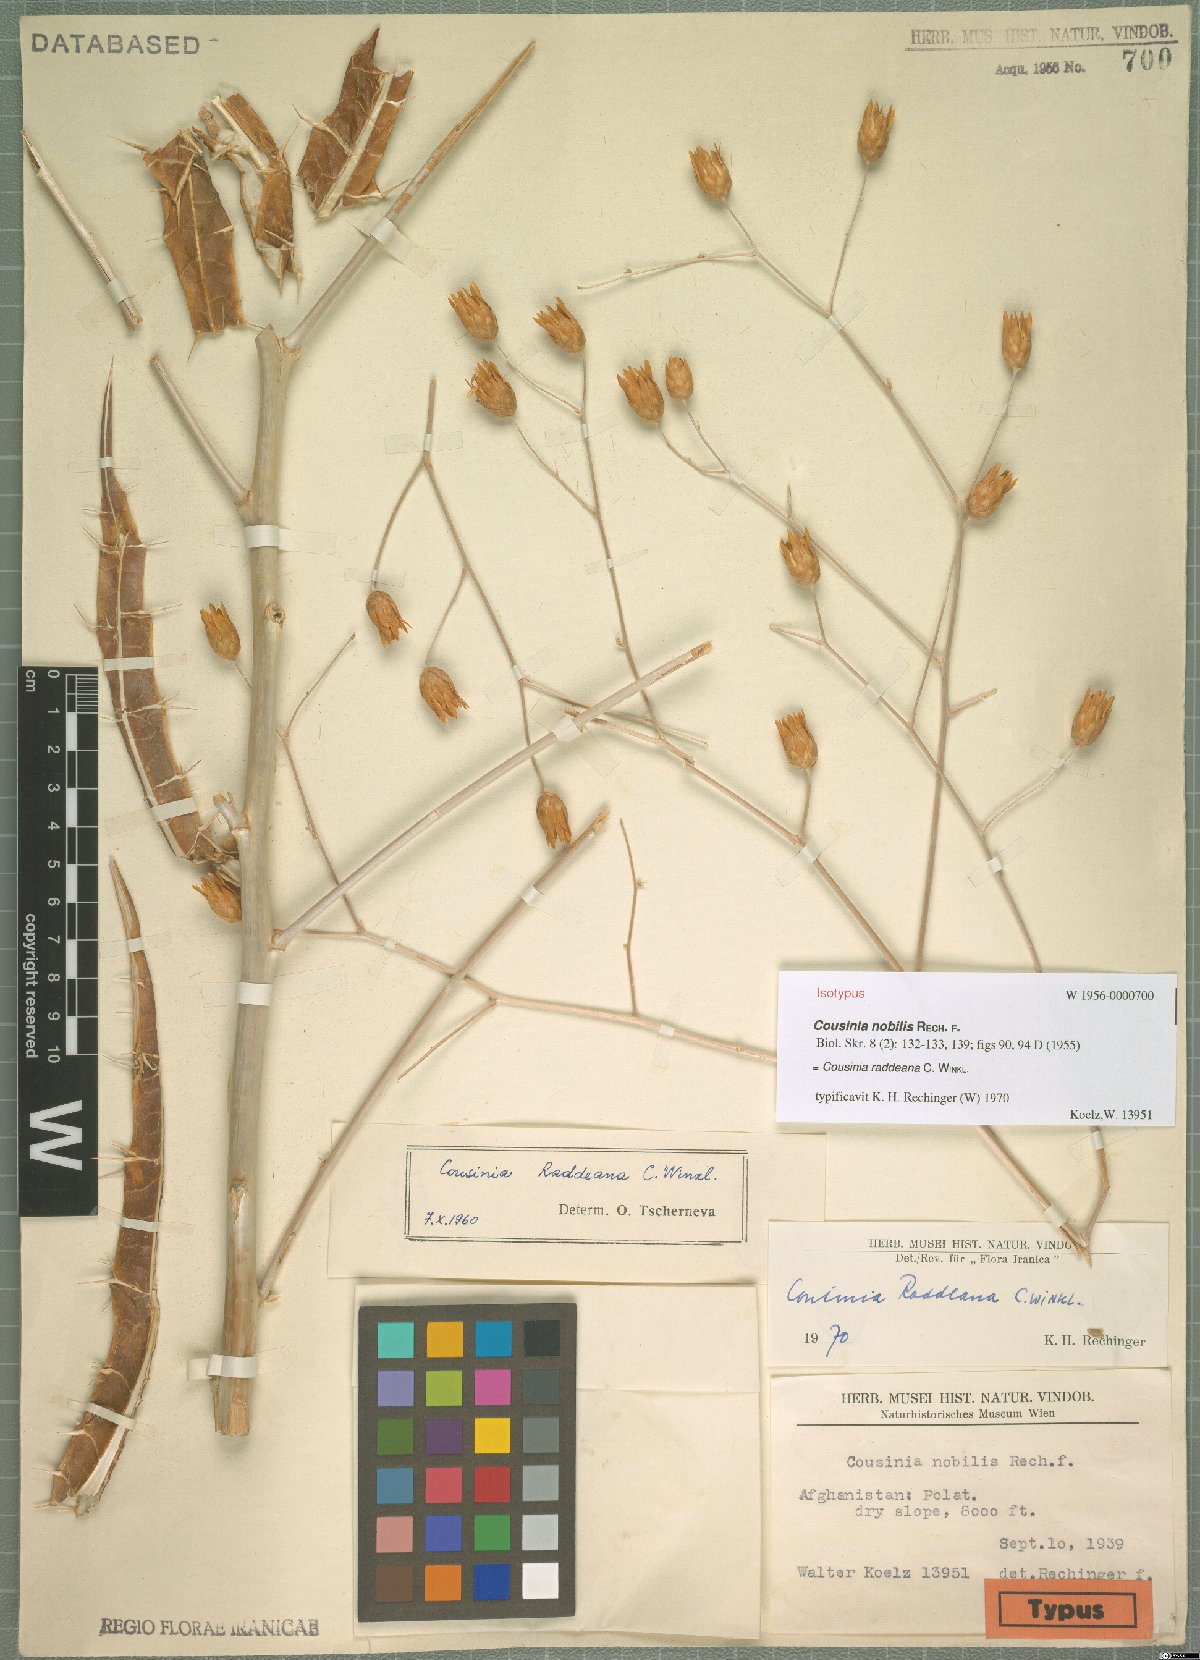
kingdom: Plantae
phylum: Tracheophyta
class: Magnoliopsida
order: Asterales
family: Asteraceae
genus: Cousinia
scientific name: Cousinia raddeana
